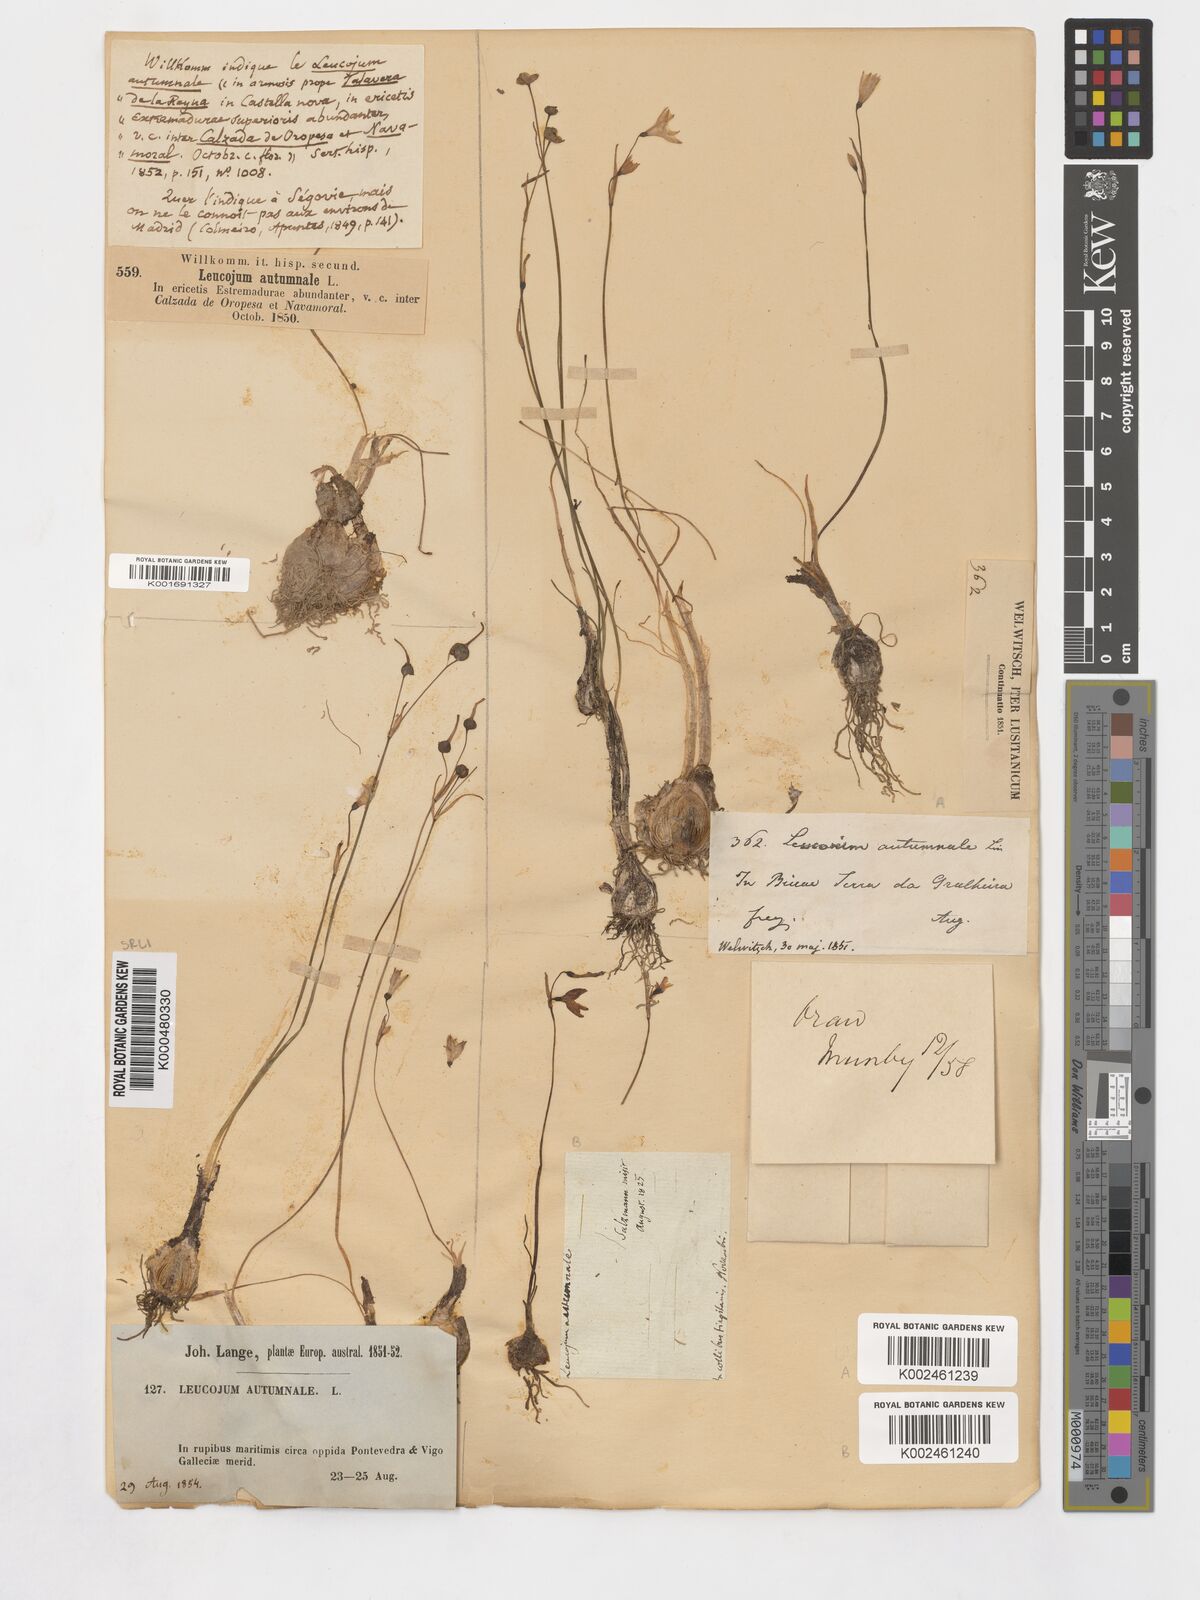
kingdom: Plantae
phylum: Tracheophyta
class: Liliopsida
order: Asparagales
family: Amaryllidaceae
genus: Acis
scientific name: Acis autumnalis
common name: Autumn snowflake
